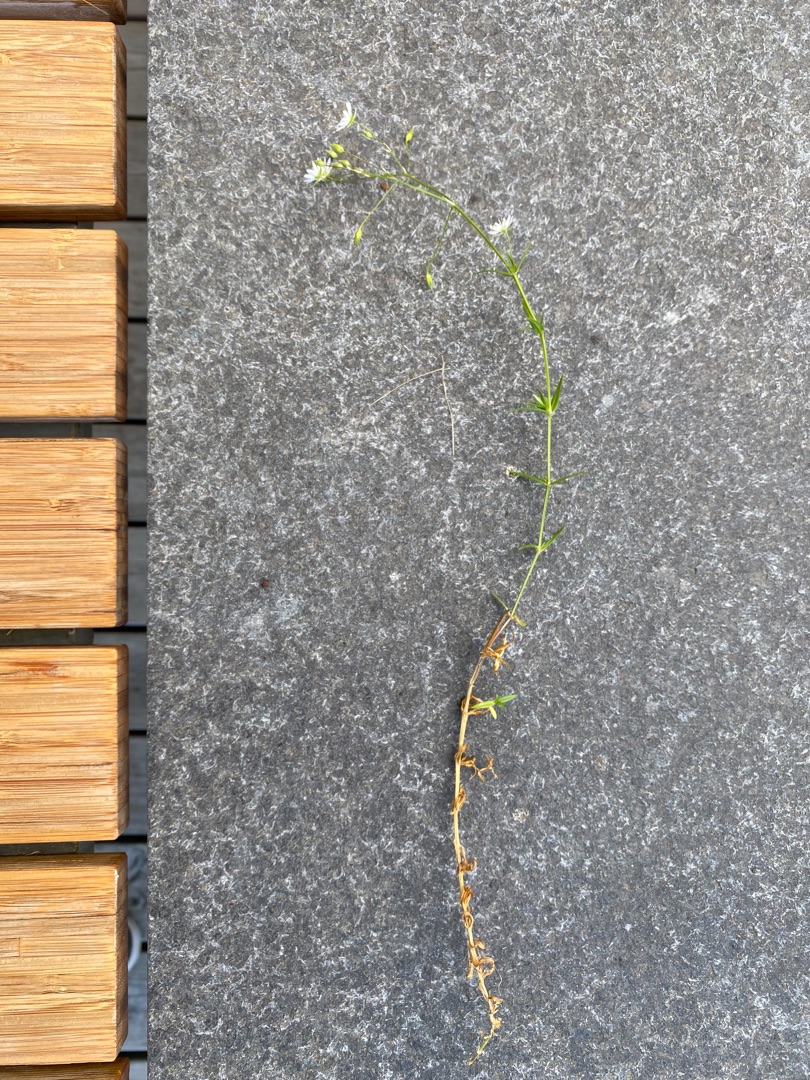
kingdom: Plantae
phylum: Tracheophyta
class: Magnoliopsida
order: Caryophyllales
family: Caryophyllaceae
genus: Stellaria
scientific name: Stellaria graminea
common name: Græsbladet fladstjerne
